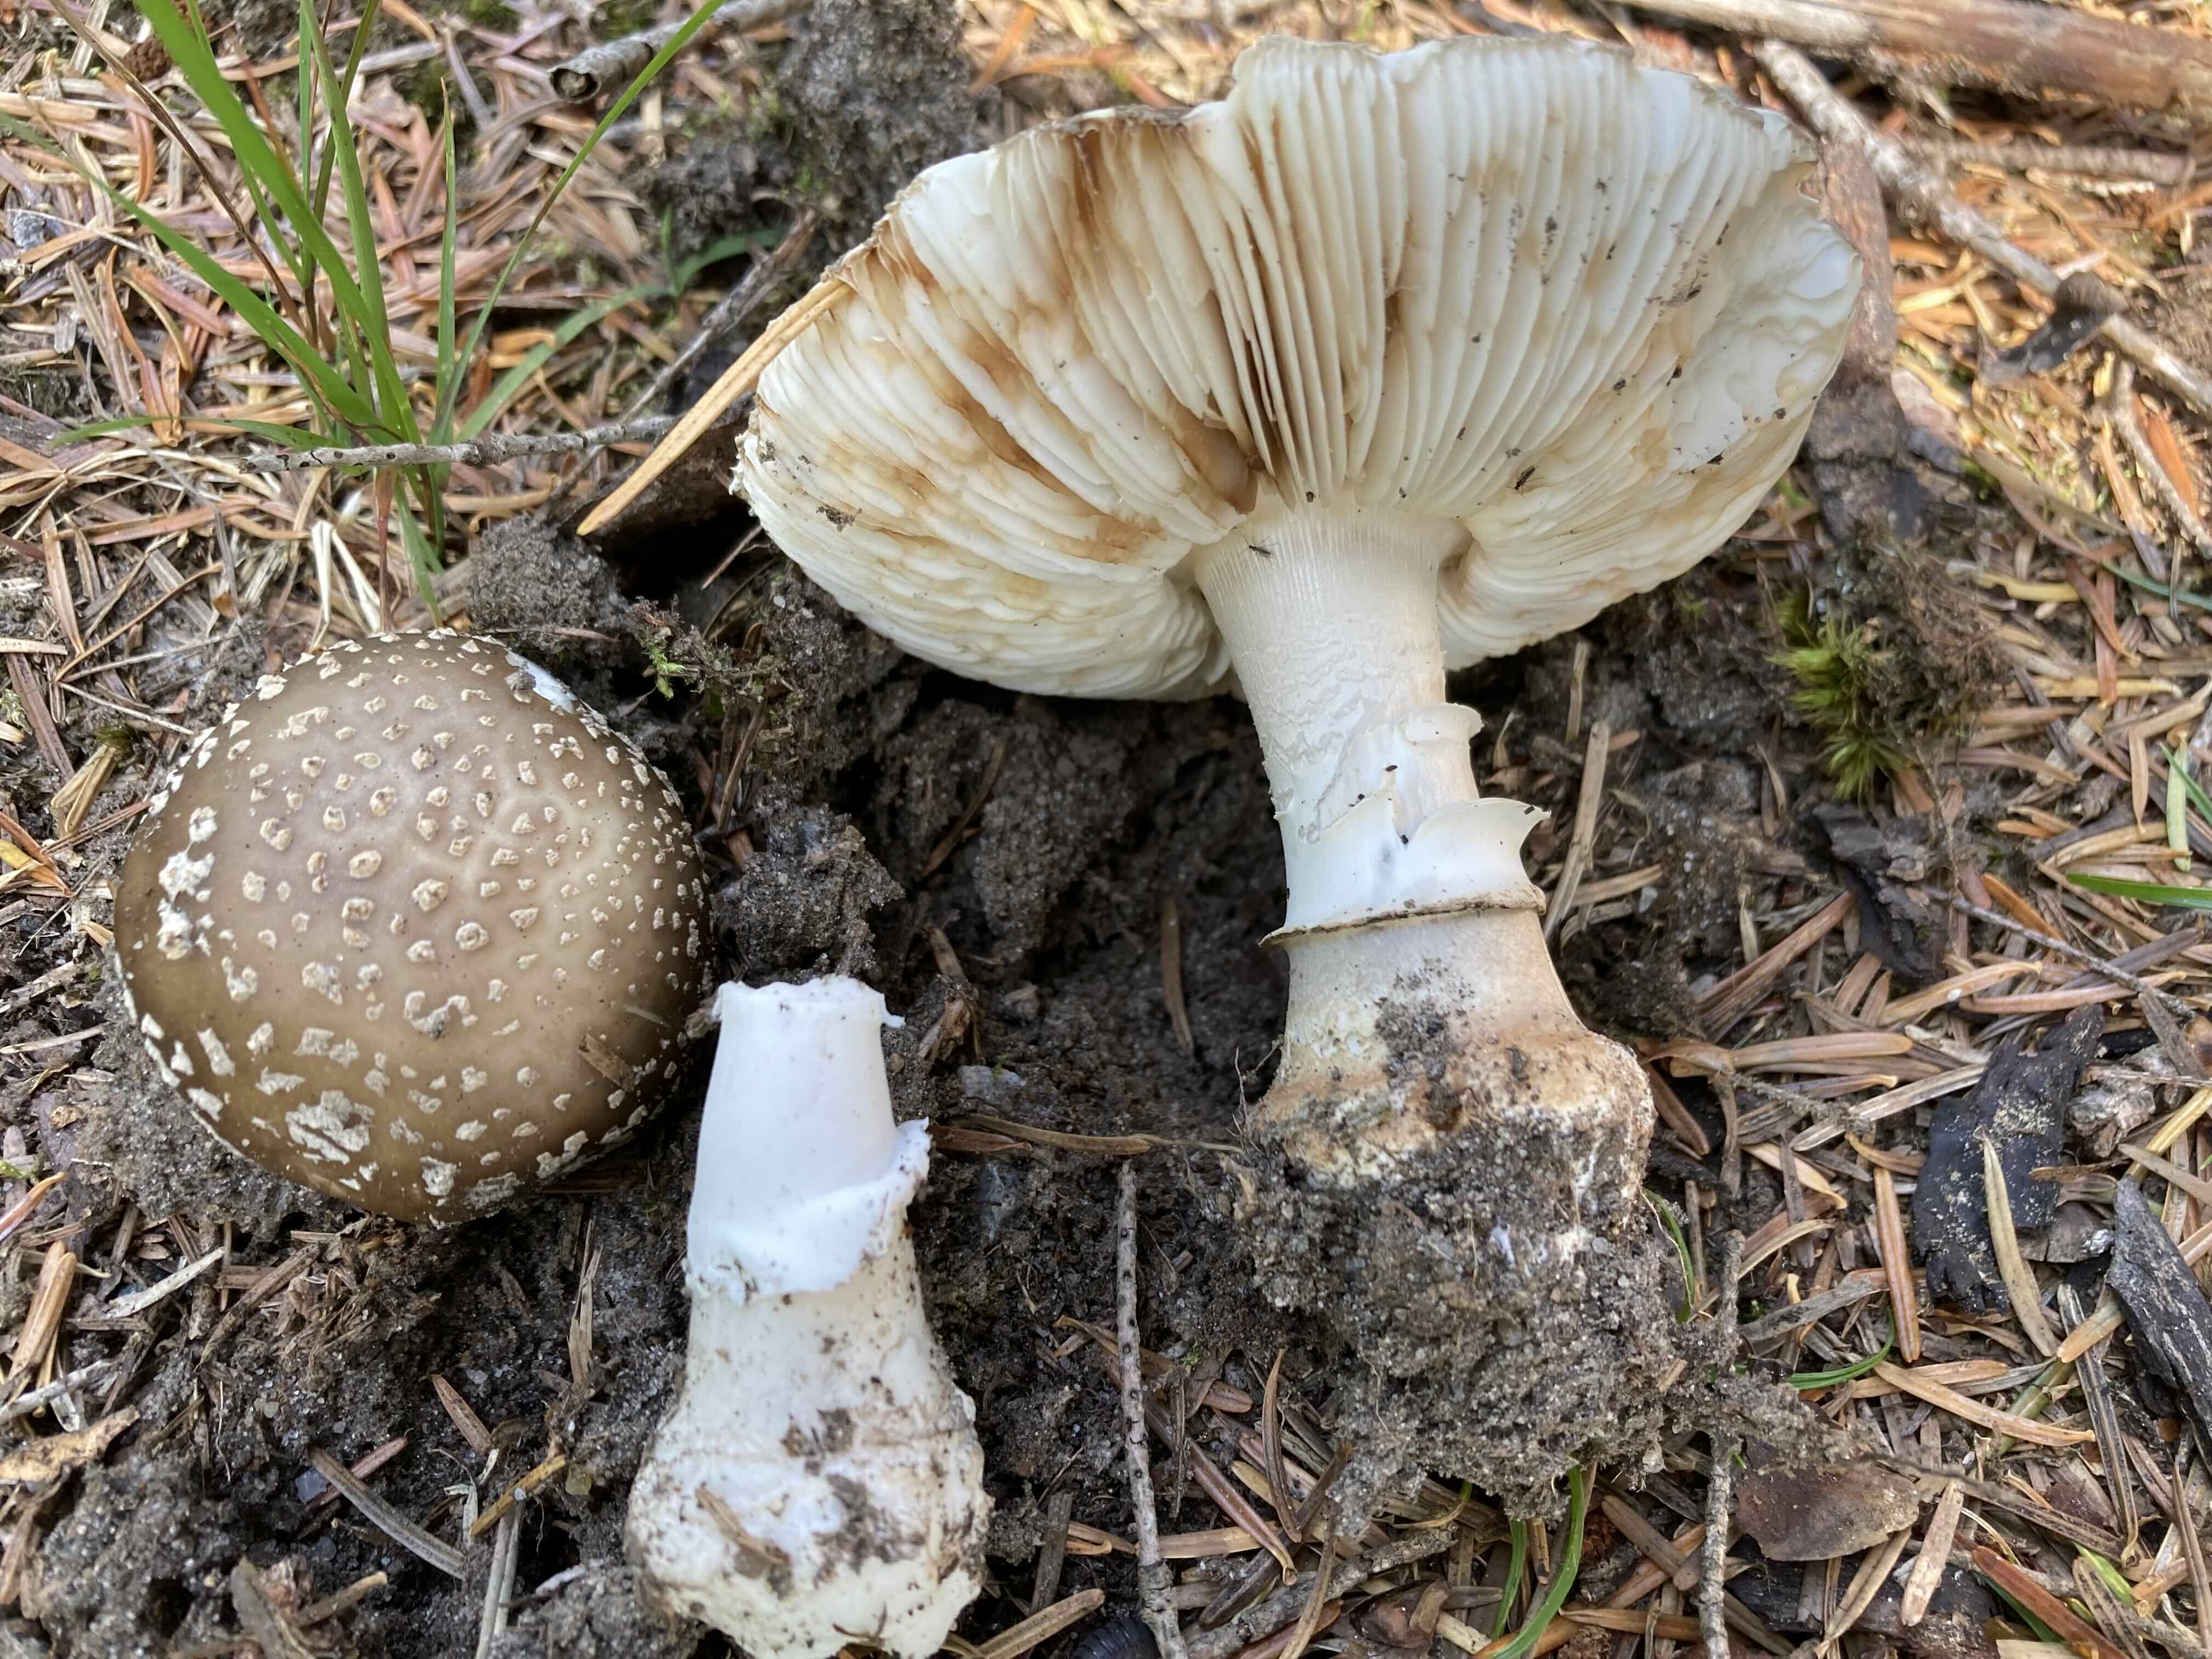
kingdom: Fungi
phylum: Basidiomycota
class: Agaricomycetes
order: Agaricales
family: Amanitaceae
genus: Amanita
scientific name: Amanita
